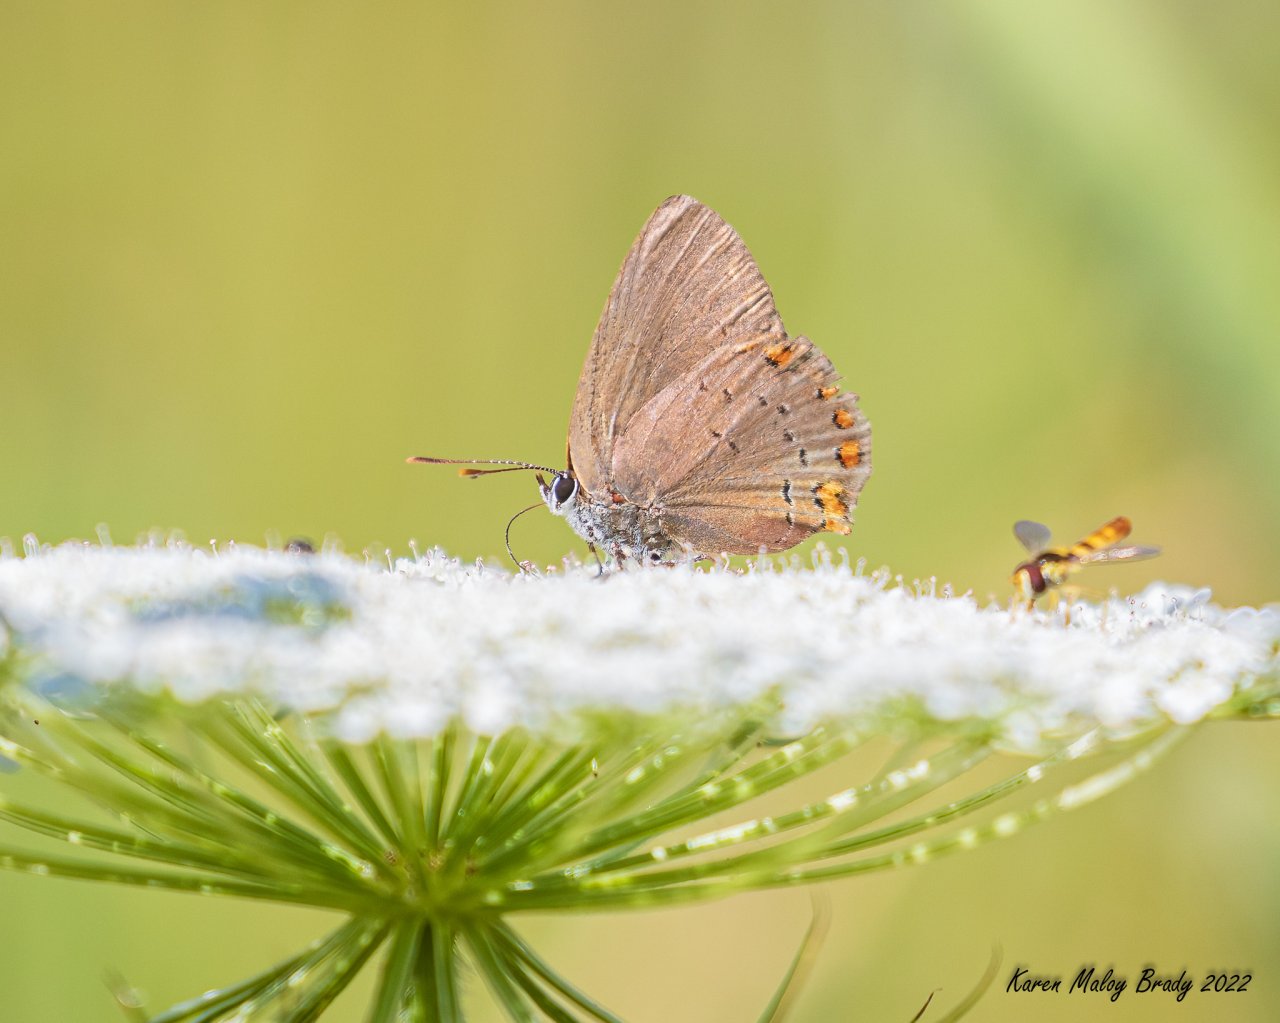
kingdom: Animalia
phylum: Arthropoda
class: Insecta
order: Lepidoptera
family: Lycaenidae
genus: Harkenclenus
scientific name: Harkenclenus titus
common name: Coral Hairstreak
